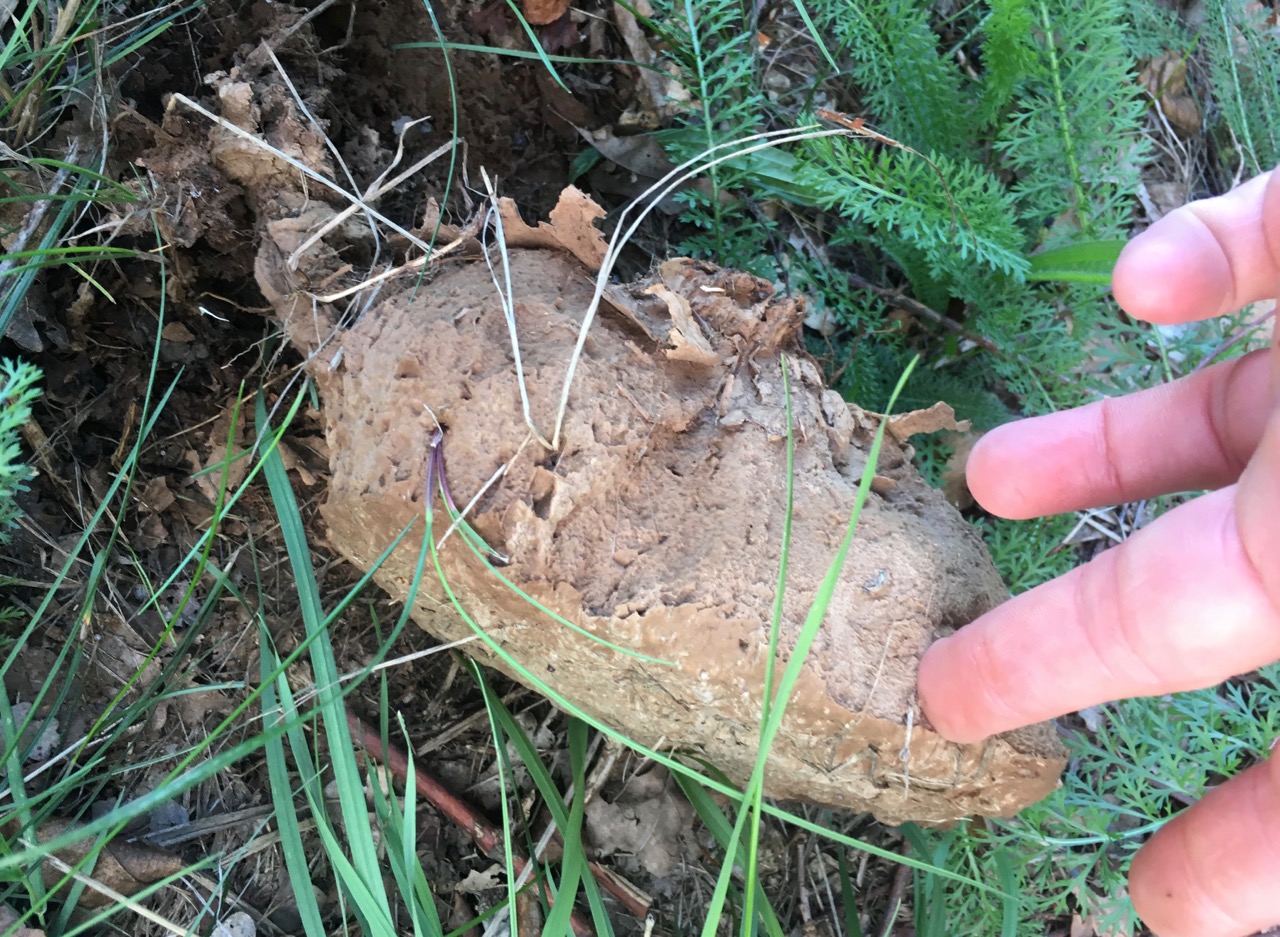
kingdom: Fungi
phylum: Basidiomycota
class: Agaricomycetes
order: Agaricales
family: Lycoperdaceae
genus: Calvatia
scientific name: Calvatia gigantea
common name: kæmpestøvbold
